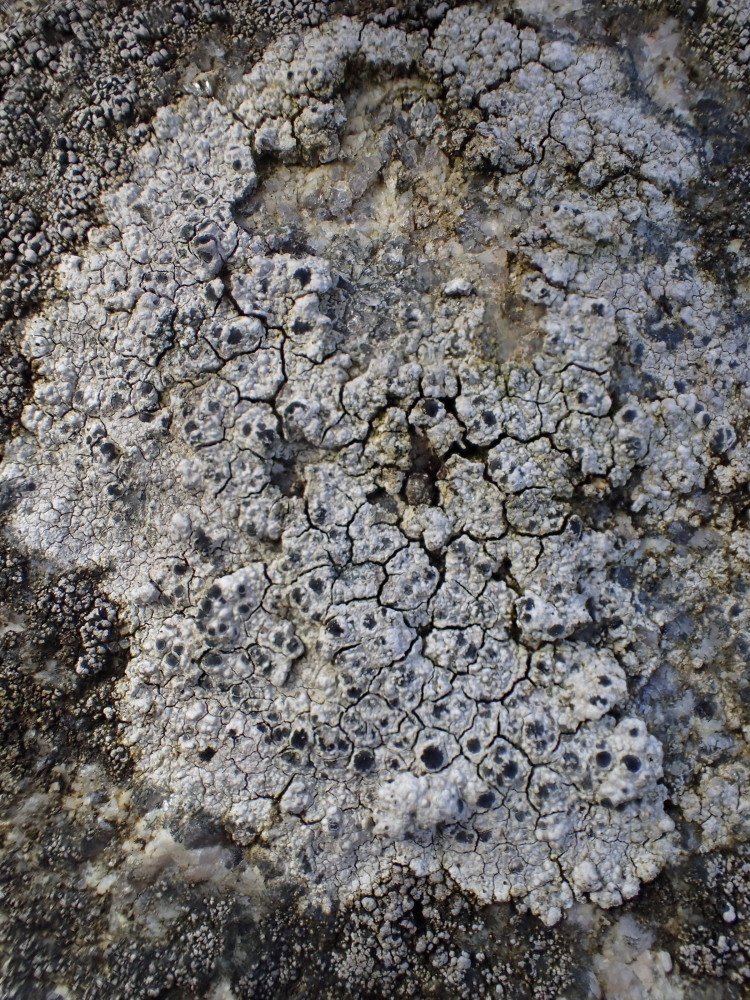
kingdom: Fungi
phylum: Ascomycota
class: Lecanoromycetes
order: Lecideales
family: Lecideaceae
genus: Lecidea
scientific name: Lecidea lithophila
